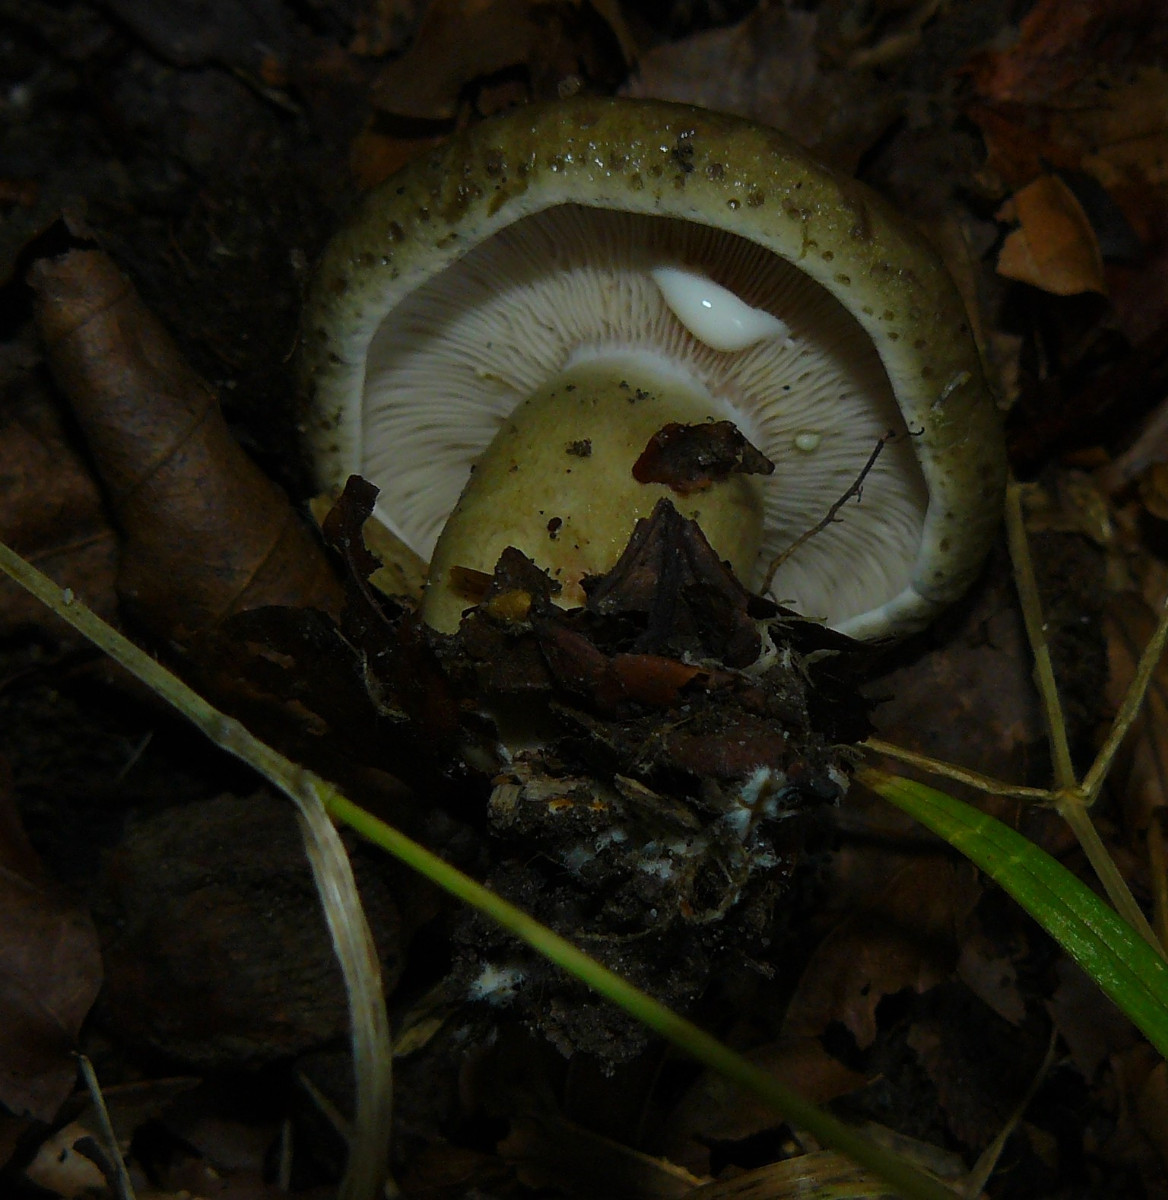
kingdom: Fungi
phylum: Basidiomycota
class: Agaricomycetes
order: Russulales
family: Russulaceae
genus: Lactarius
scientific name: Lactarius blennius
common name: dråbeplettet mælkehat
